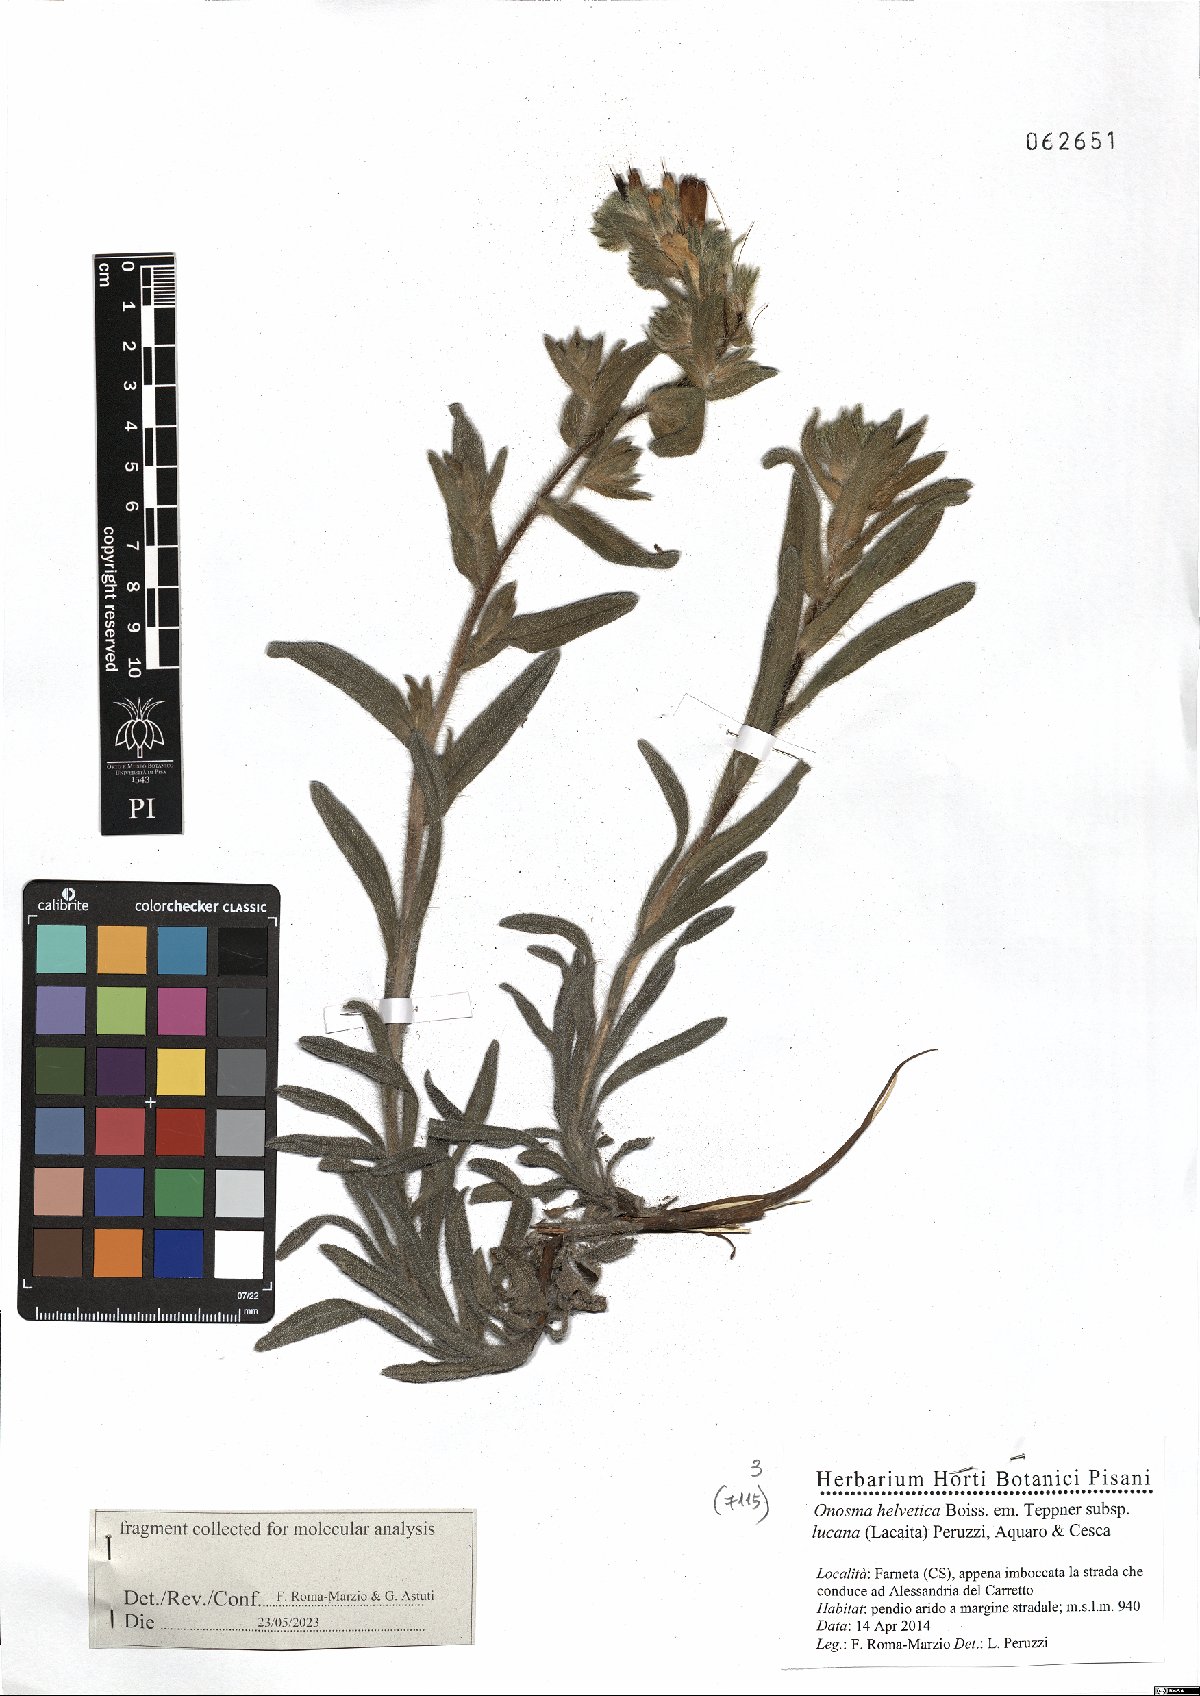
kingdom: Plantae
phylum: Tracheophyta
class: Magnoliopsida
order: Boraginales
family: Boraginaceae
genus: Onosma
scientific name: Onosma helvetica
